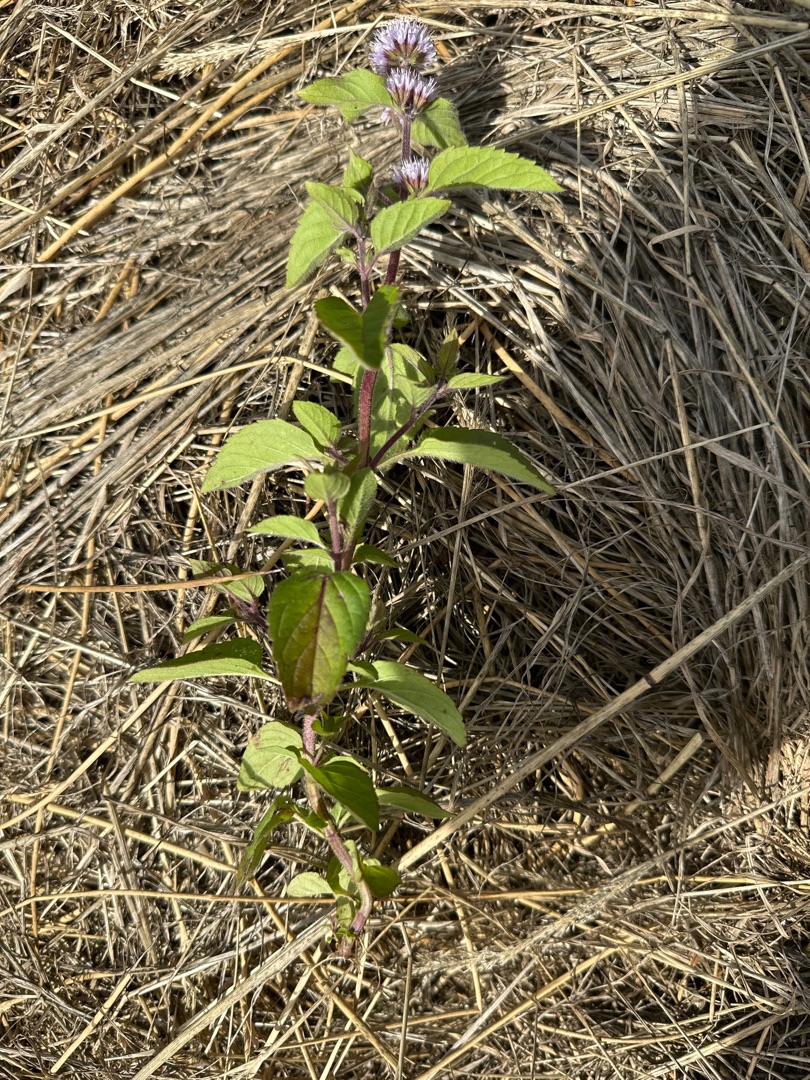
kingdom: Plantae
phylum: Tracheophyta
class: Magnoliopsida
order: Lamiales
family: Lamiaceae
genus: Mentha
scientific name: Mentha aquatica
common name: Vand-mynte
